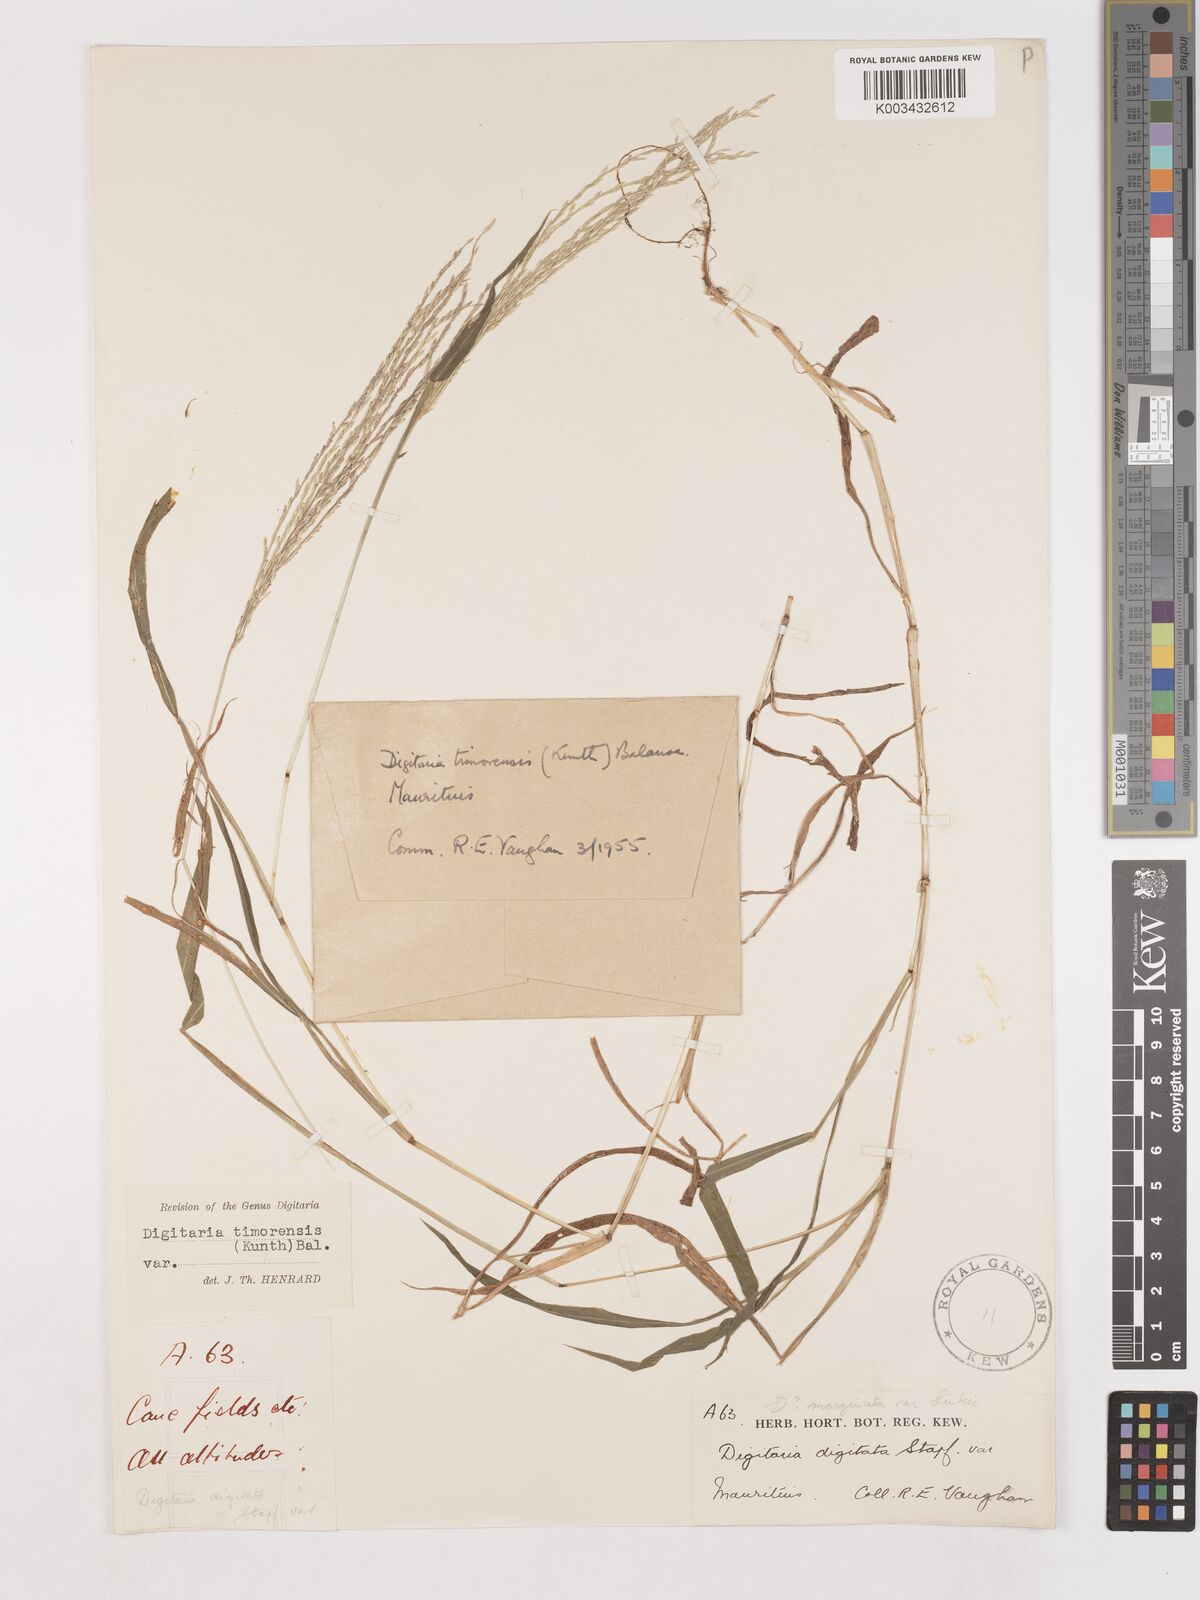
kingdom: Plantae
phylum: Tracheophyta
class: Liliopsida
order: Poales
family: Poaceae
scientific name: Poaceae
